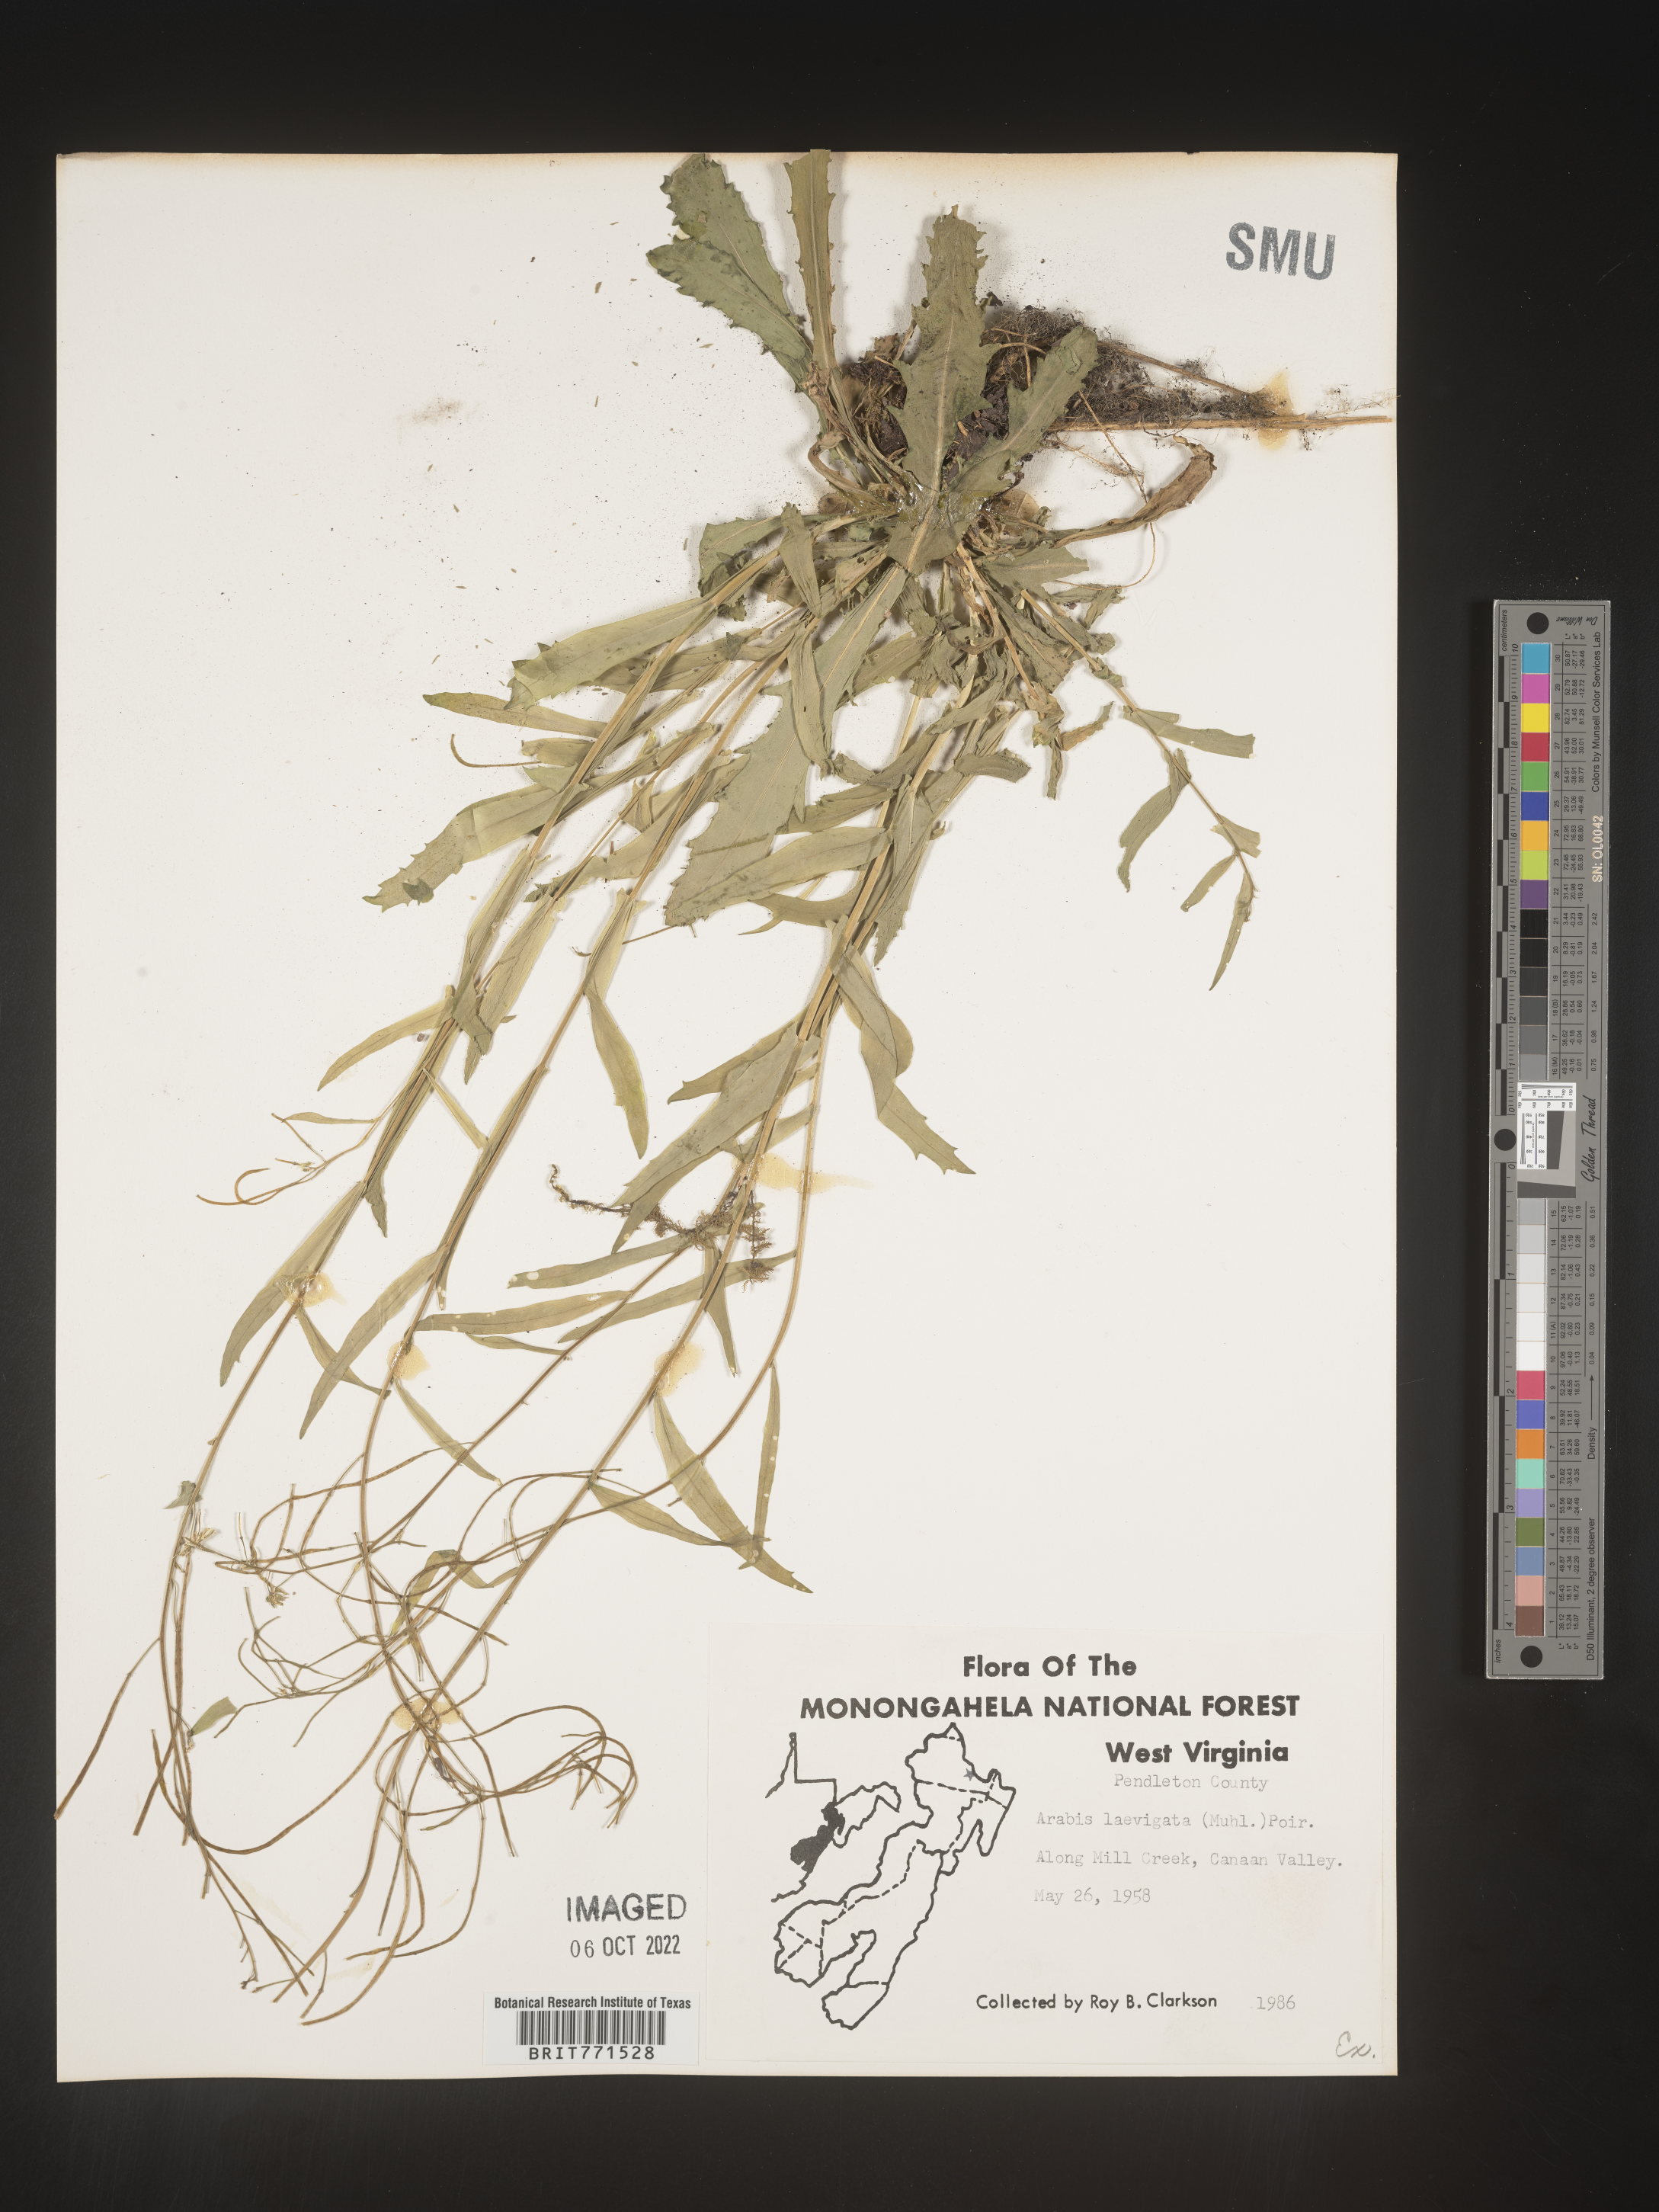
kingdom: Plantae
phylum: Tracheophyta
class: Magnoliopsida
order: Brassicales
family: Brassicaceae
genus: Arabis
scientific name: Arabis laevigata
